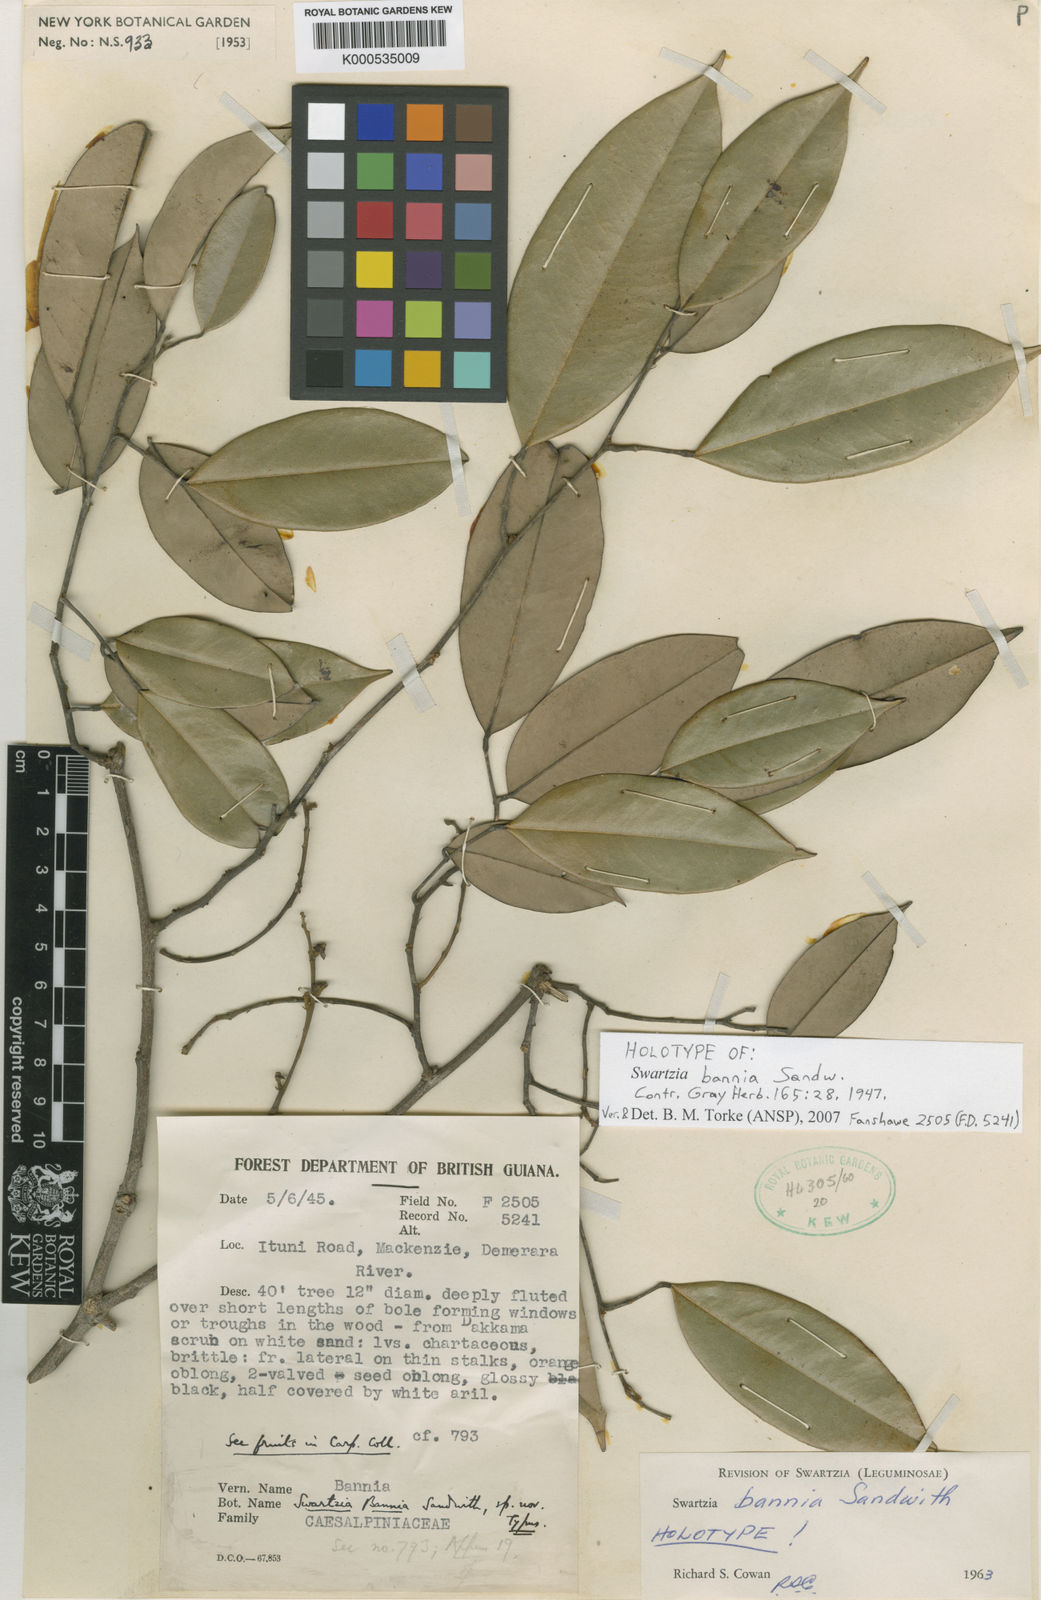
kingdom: Plantae
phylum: Tracheophyta
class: Magnoliopsida
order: Fabales
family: Fabaceae
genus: Swartzia
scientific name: Swartzia bannia
